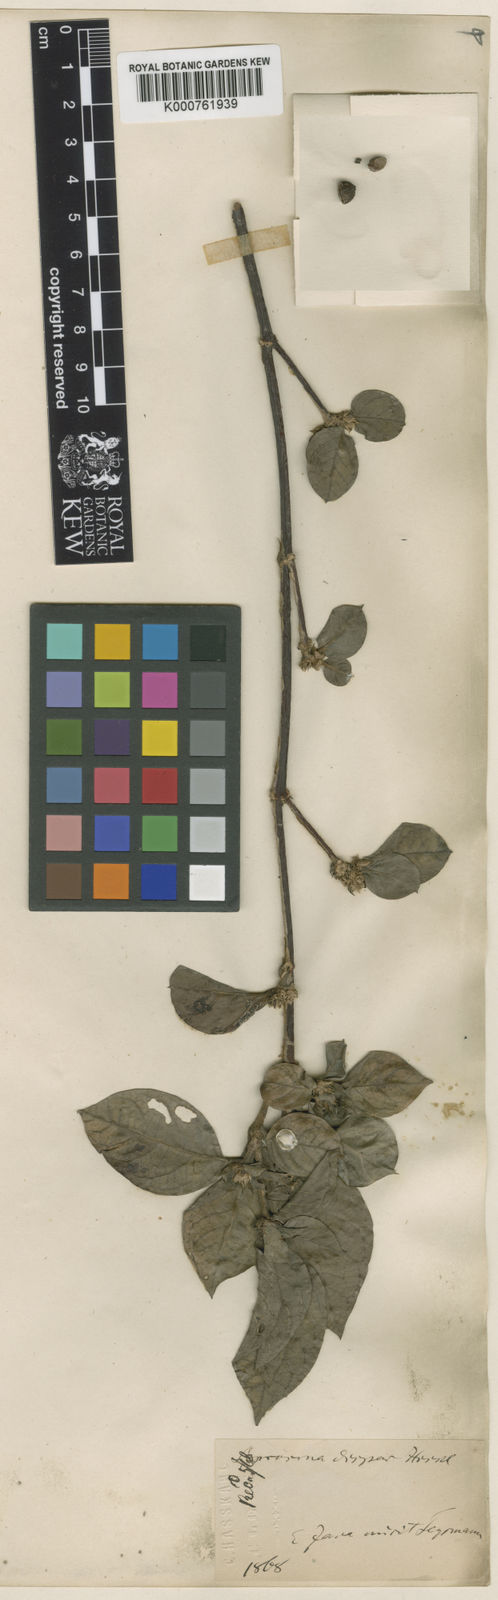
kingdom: Plantae
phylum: Tracheophyta
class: Magnoliopsida
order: Gentianales
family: Rubiaceae
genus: Saprosma
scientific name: Saprosma dispar
